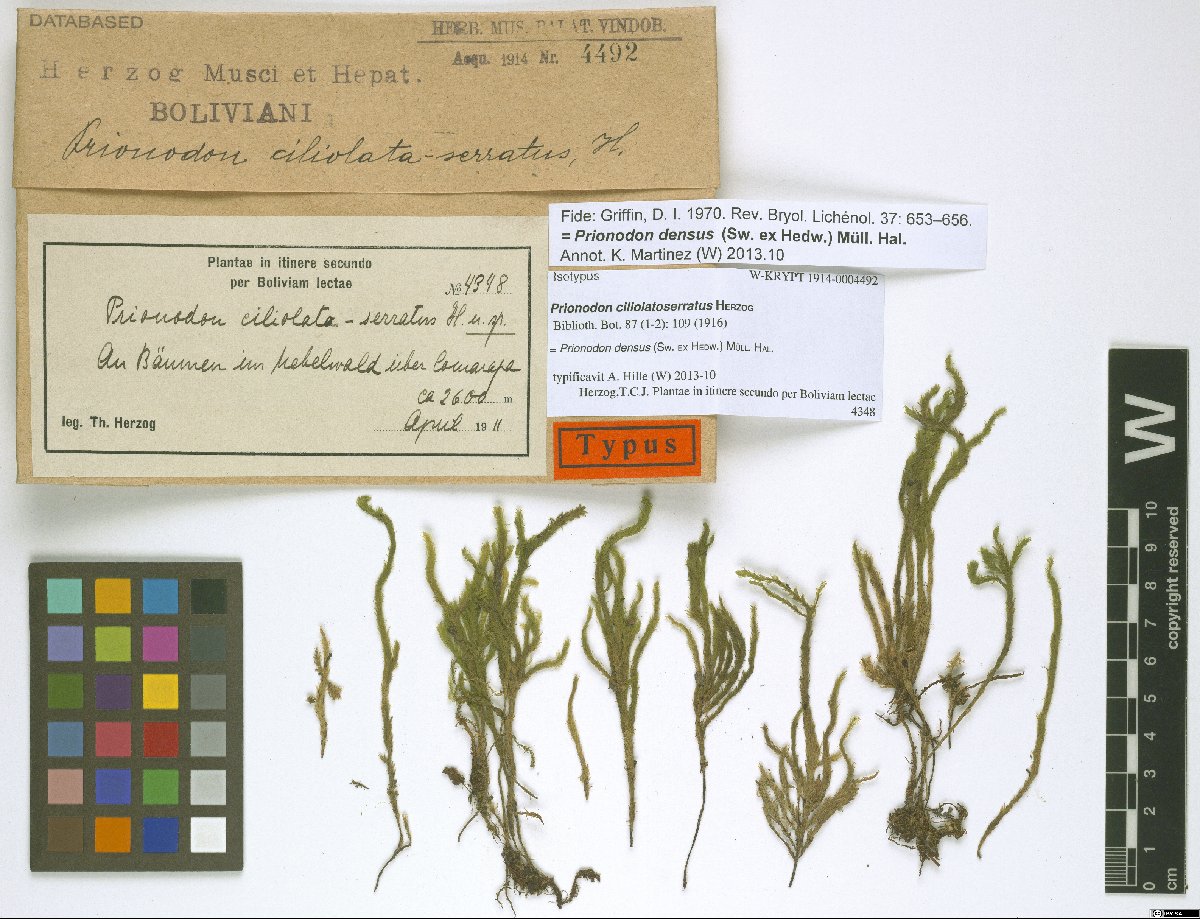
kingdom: Plantae
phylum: Bryophyta
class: Bryopsida
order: Hypnales
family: Prionodontaceae
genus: Prionodon
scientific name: Prionodon densus
